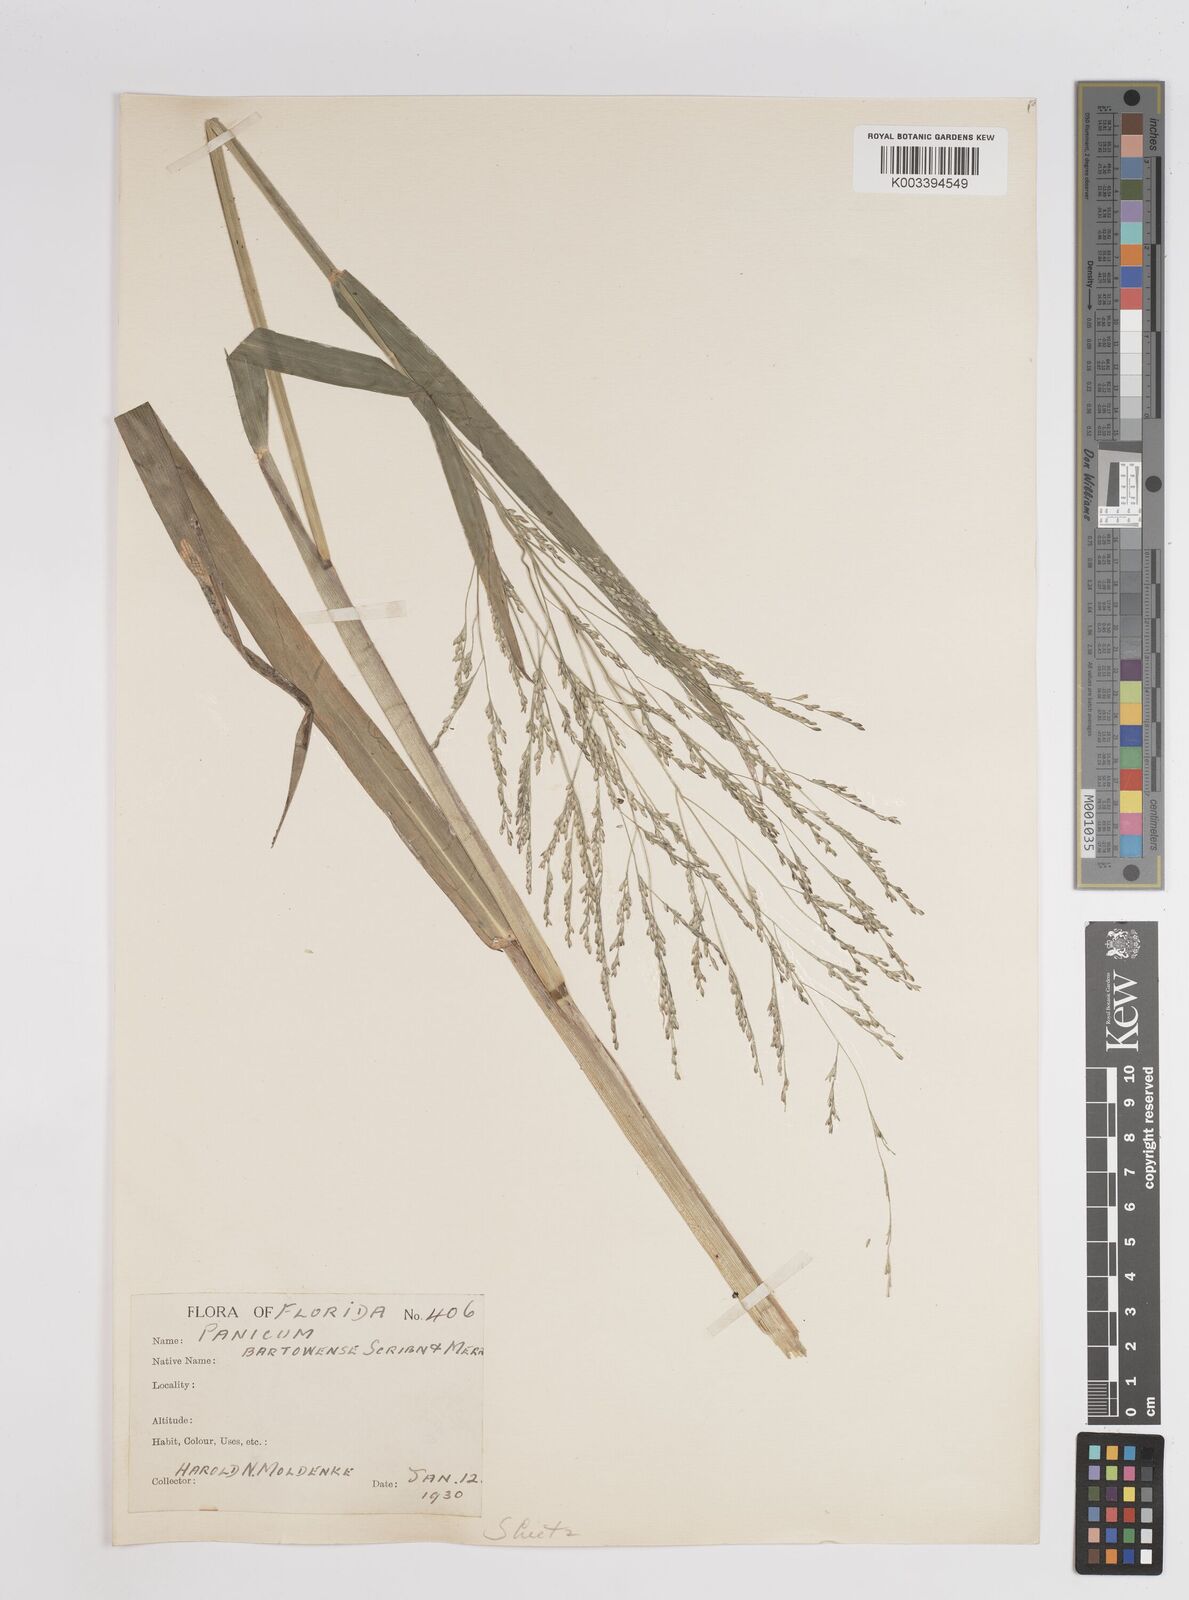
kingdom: Plantae
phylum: Tracheophyta
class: Liliopsida
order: Poales
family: Poaceae
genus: Panicum
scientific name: Panicum bartowense
